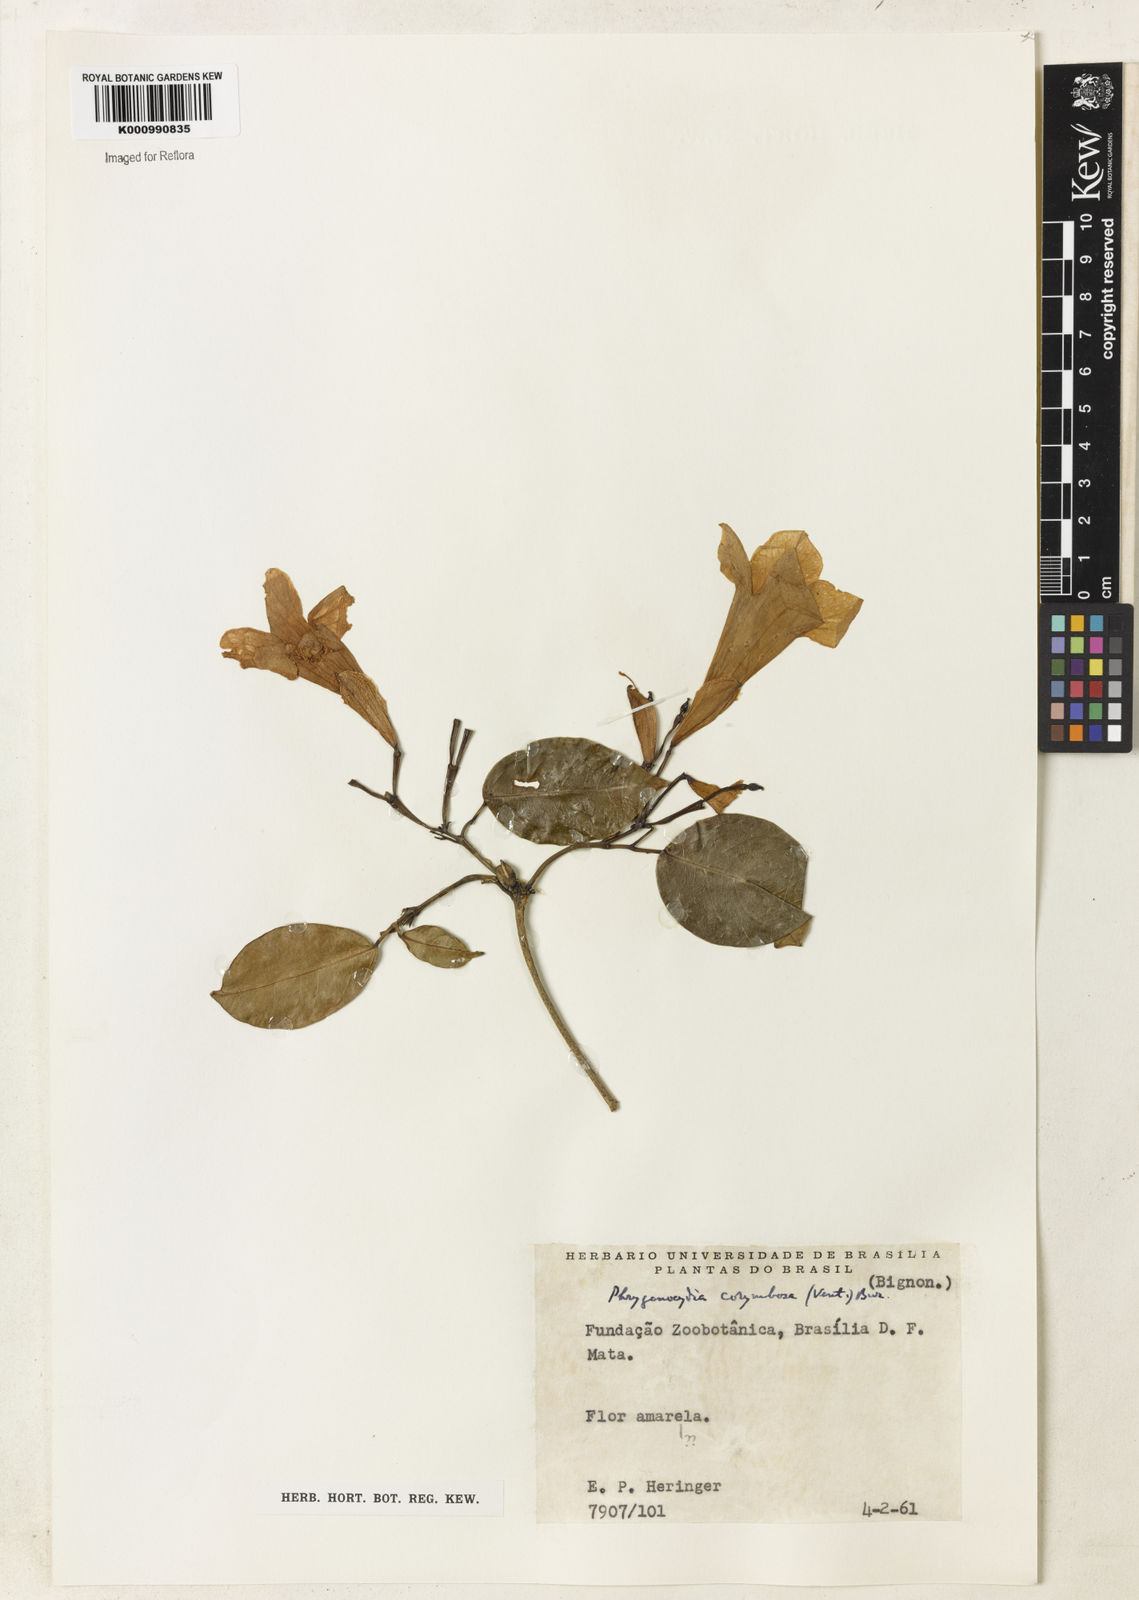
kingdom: Plantae
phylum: Tracheophyta
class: Magnoliopsida
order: Lamiales
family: Bignoniaceae
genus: Bignonia
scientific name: Bignonia corymbosa
